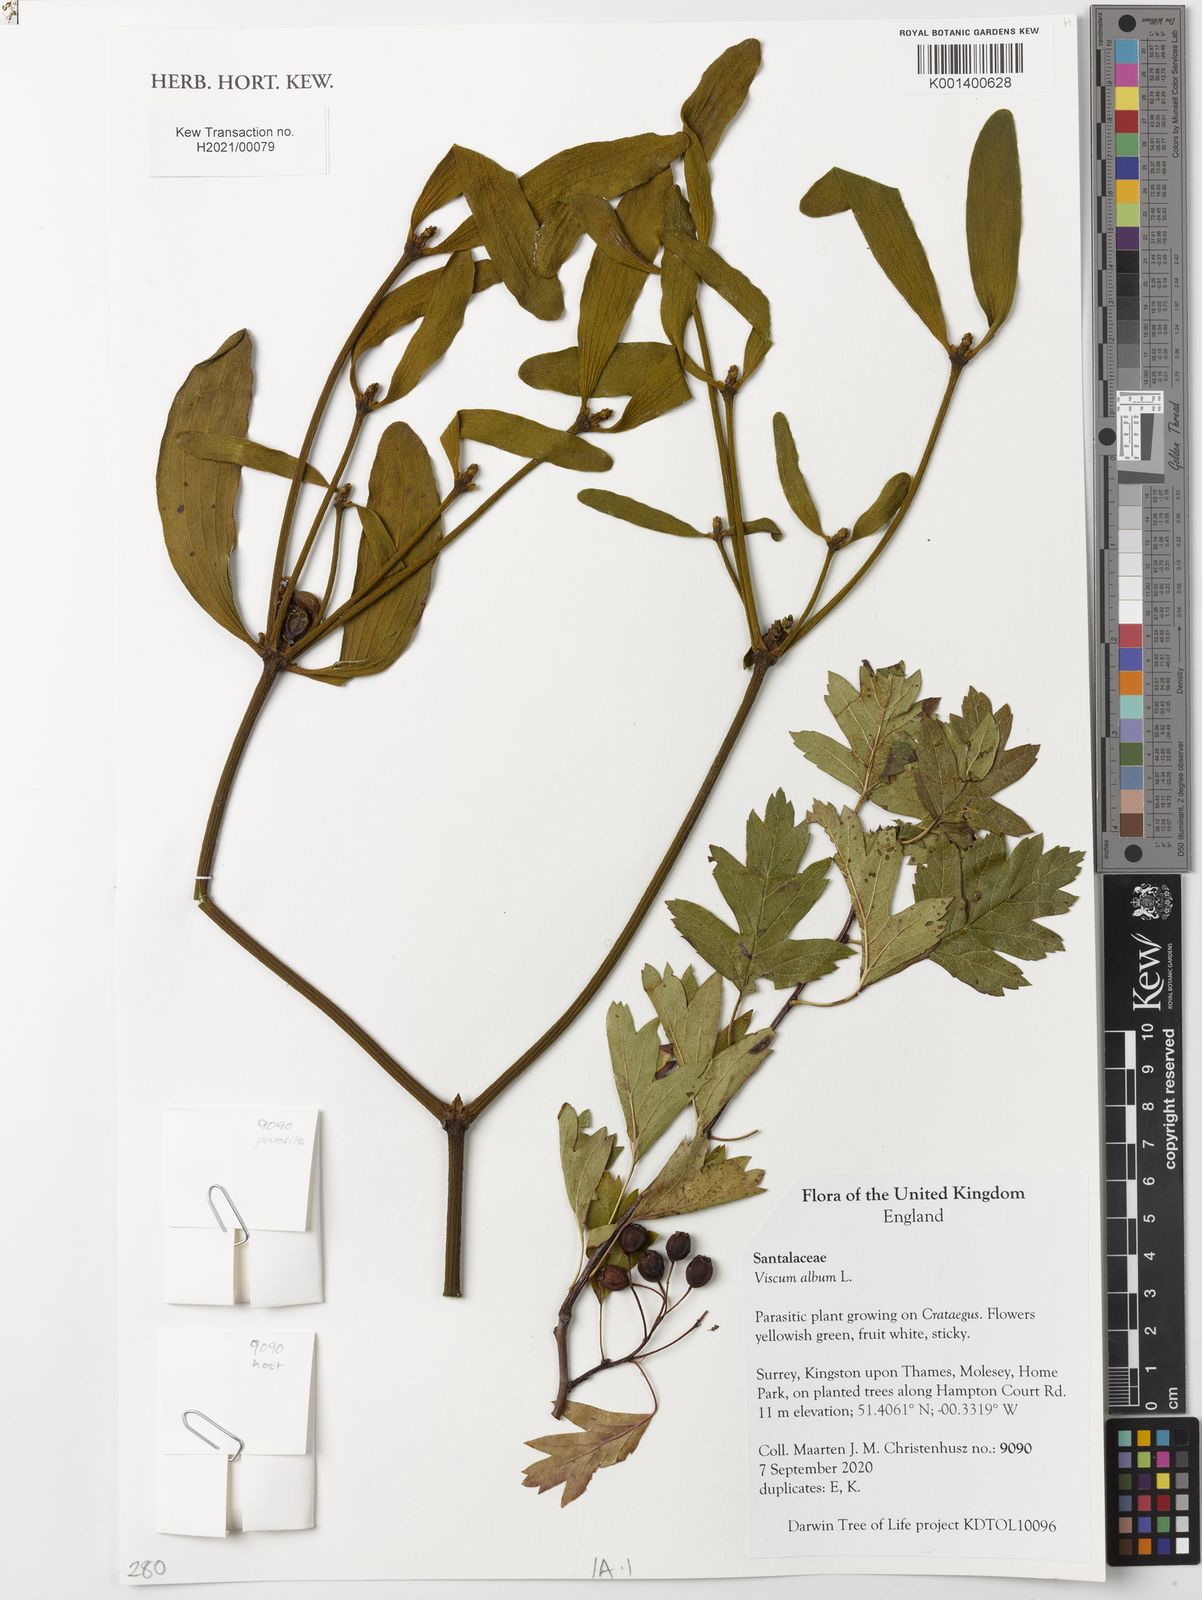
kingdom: Plantae
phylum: Tracheophyta
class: Magnoliopsida
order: Santalales
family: Viscaceae
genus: Viscum
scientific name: Viscum album
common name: Mistletoe
